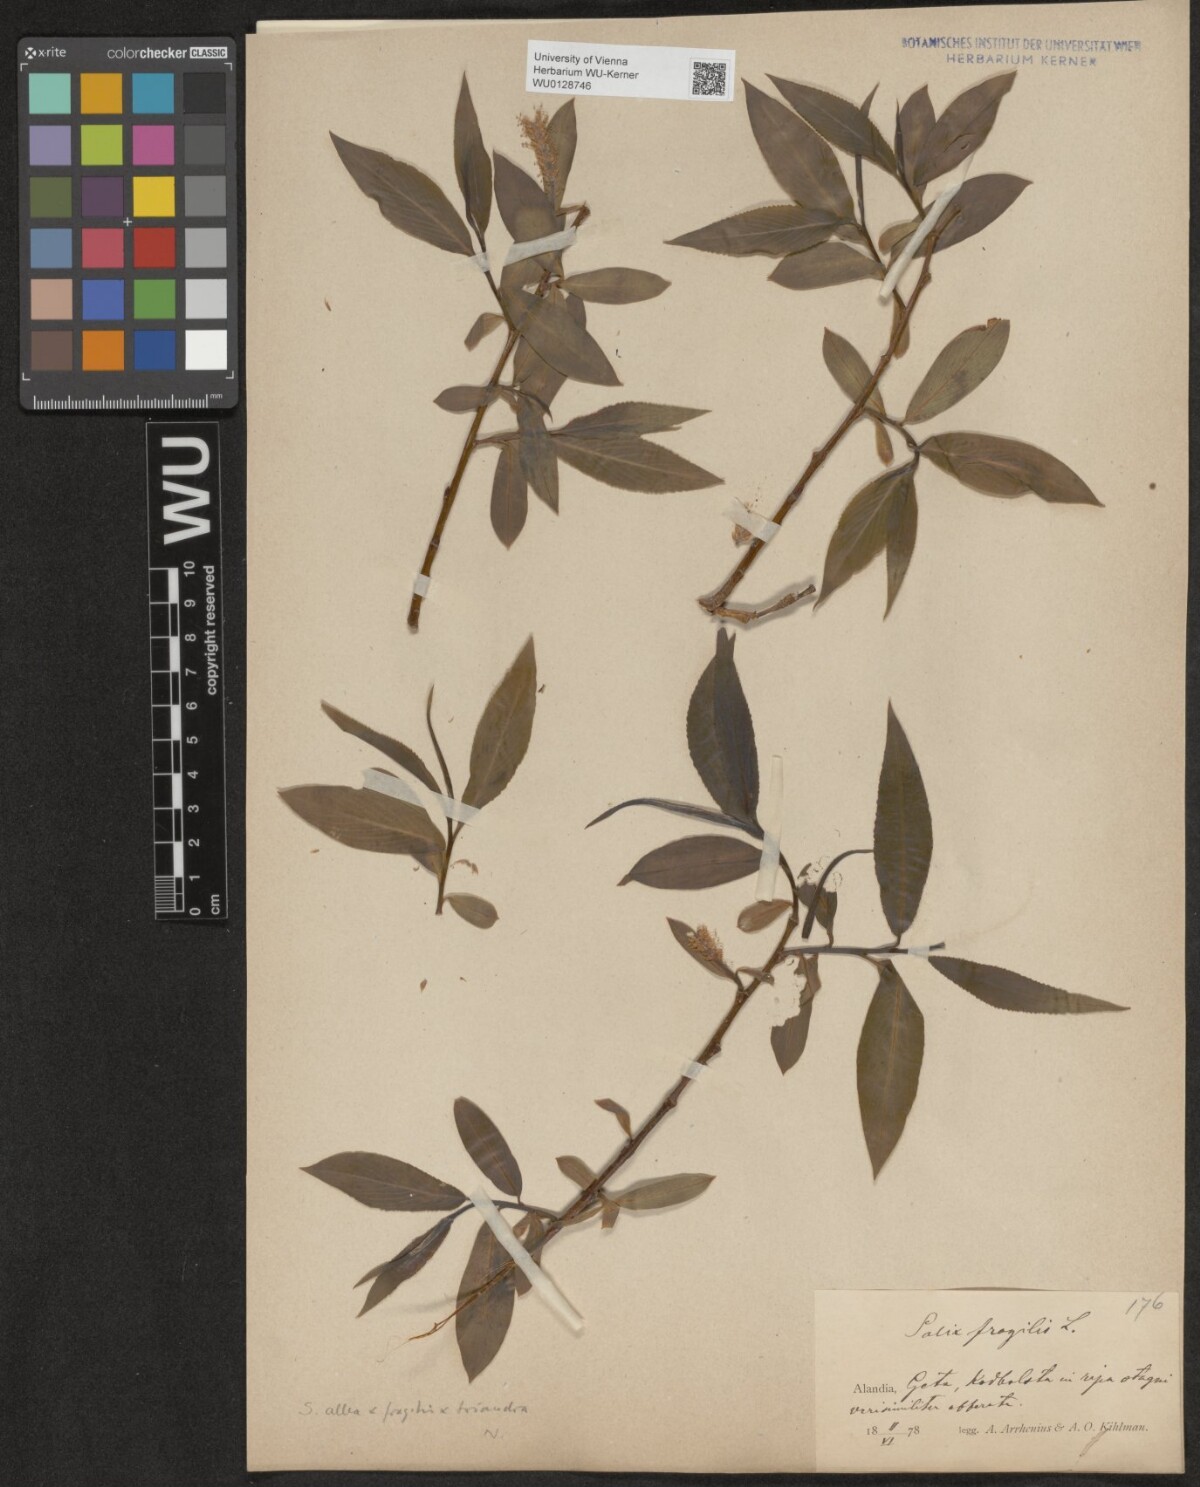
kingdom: Plantae
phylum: Tracheophyta
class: Magnoliopsida
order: Malpighiales
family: Salicaceae
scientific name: Salicaceae
